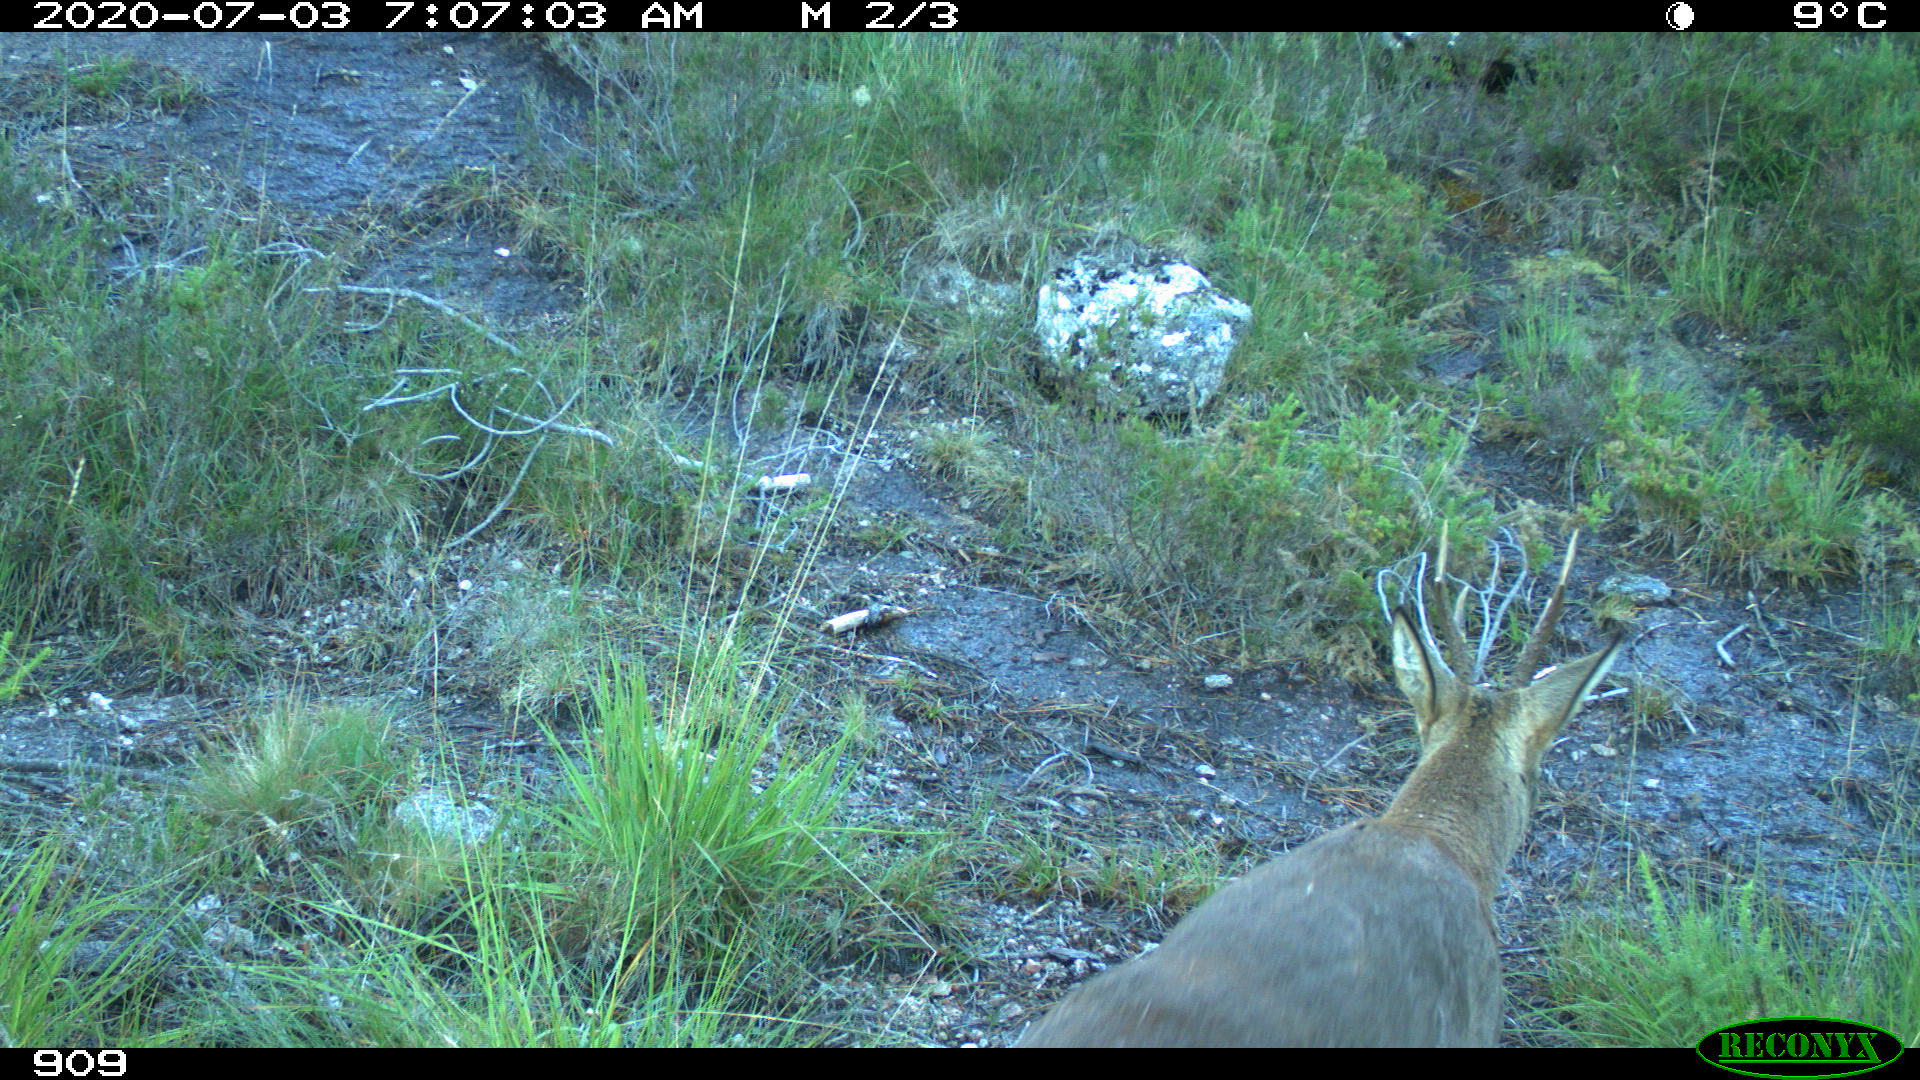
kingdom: Animalia
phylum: Chordata
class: Mammalia
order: Artiodactyla
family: Cervidae
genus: Capreolus
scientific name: Capreolus capreolus
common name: Western roe deer
